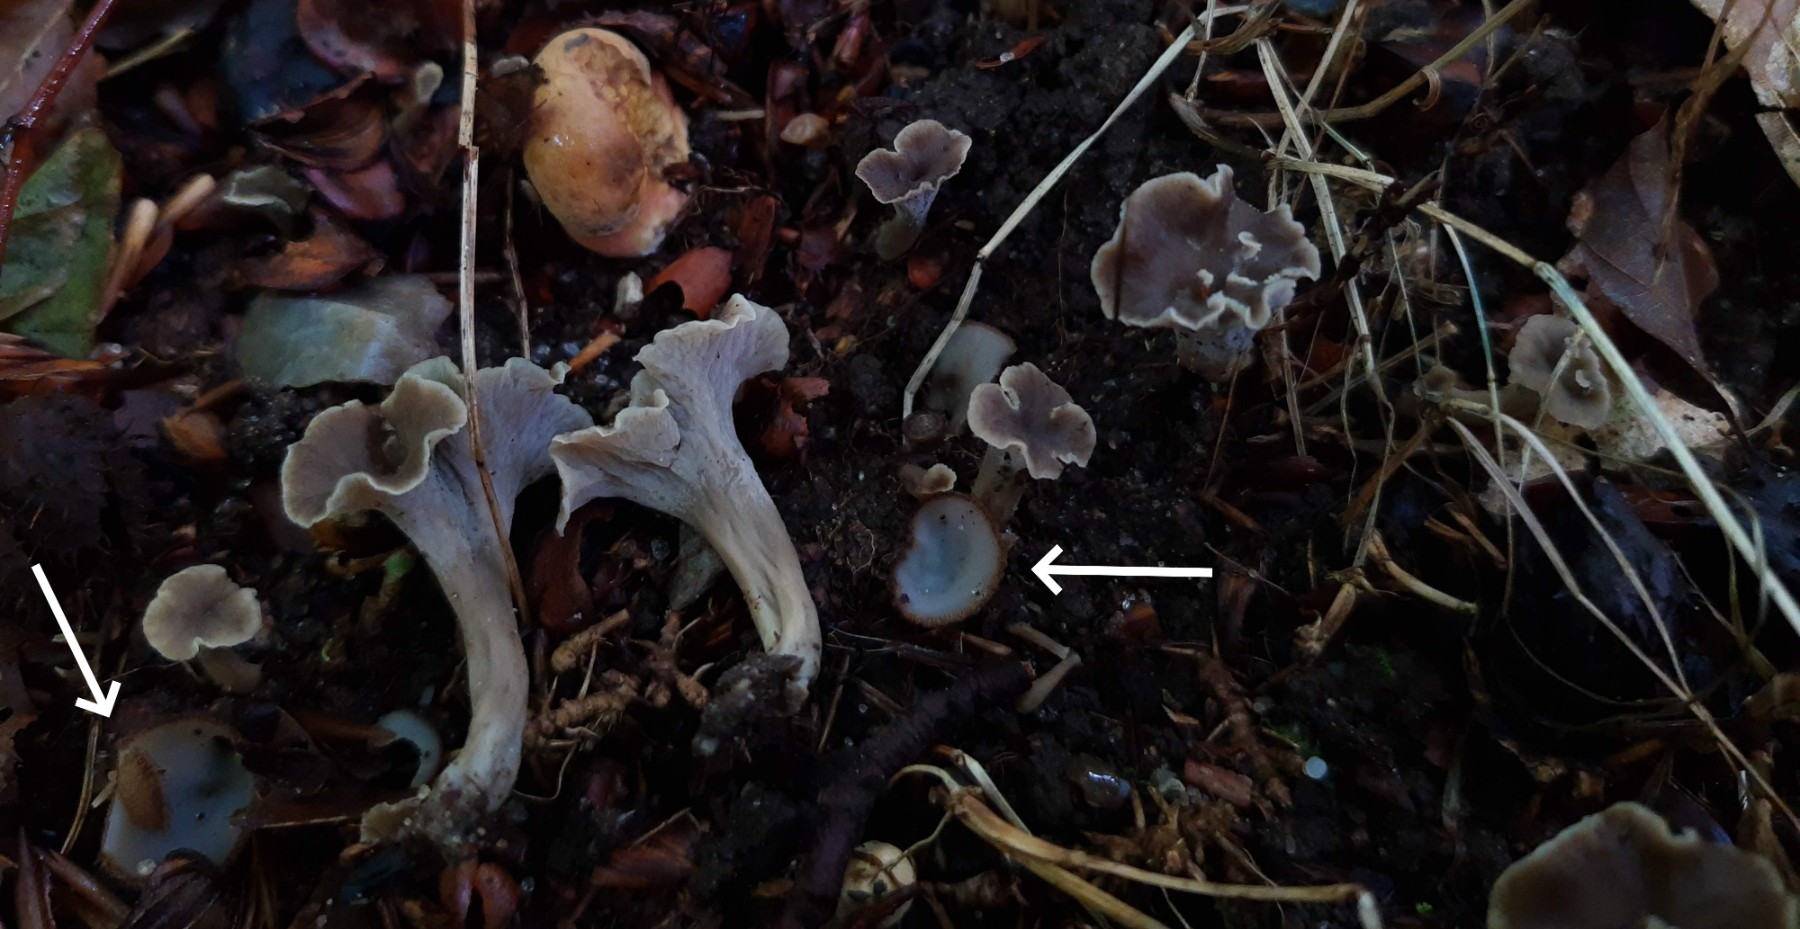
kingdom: Fungi
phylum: Ascomycota
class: Pezizomycetes
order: Pezizales
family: Pyronemataceae
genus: Humaria
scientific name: Humaria hemisphaerica
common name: halvkugleformet børstebæger
